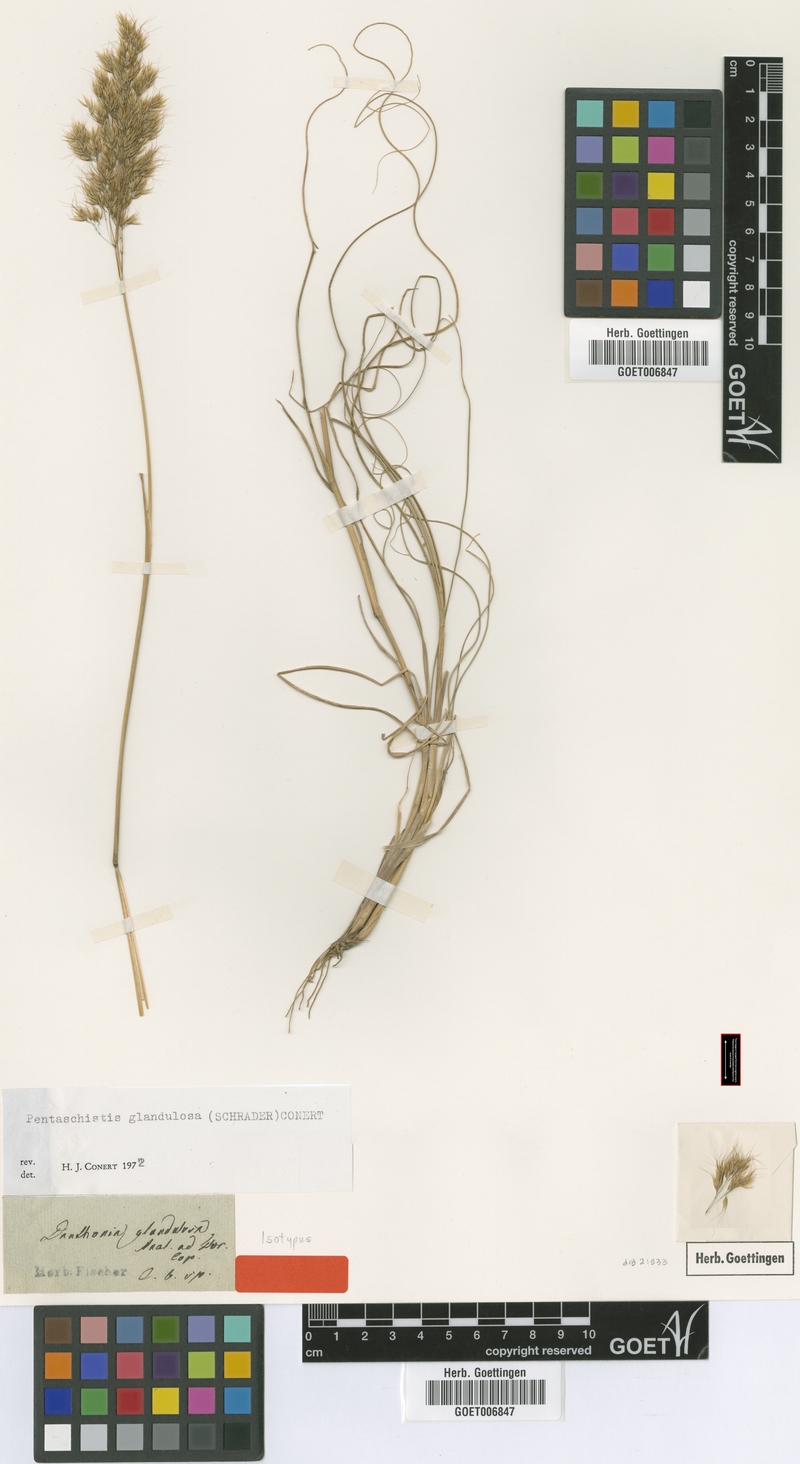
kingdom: Plantae
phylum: Tracheophyta
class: Liliopsida
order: Poales
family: Poaceae
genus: Pentameris
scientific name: Pentameris glandulosa
